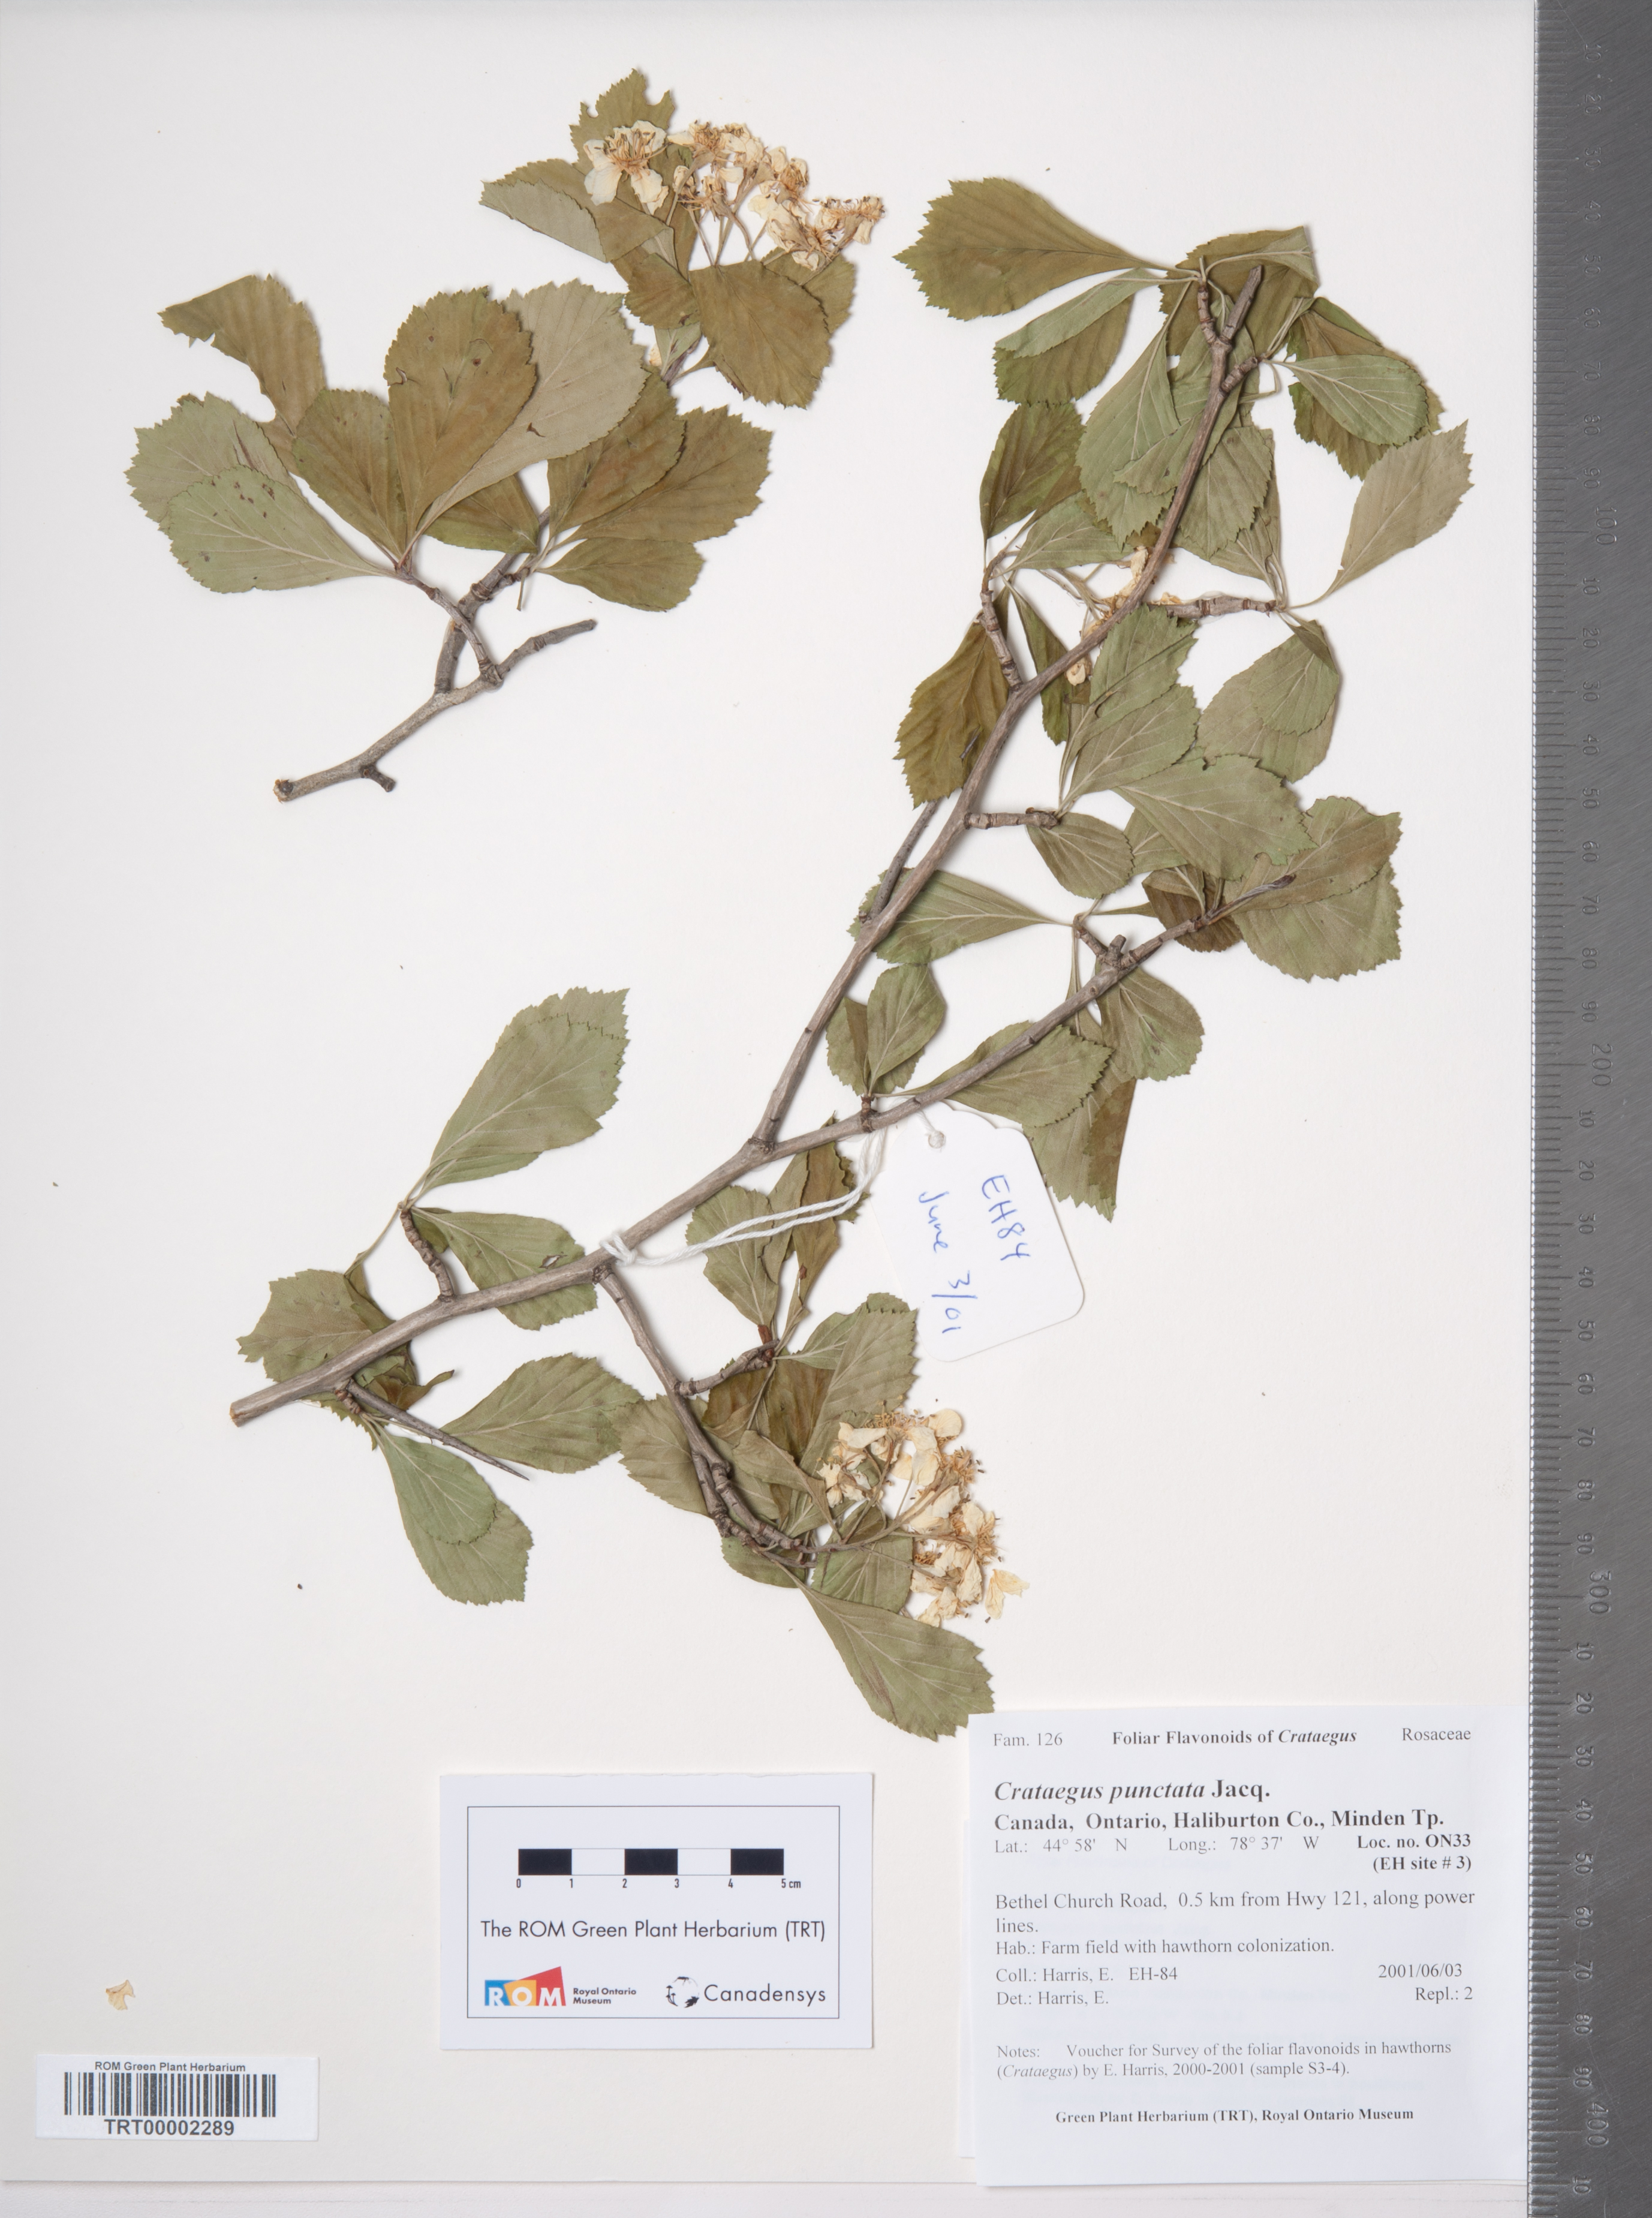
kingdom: Plantae
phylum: Tracheophyta
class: Magnoliopsida
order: Rosales
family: Rosaceae
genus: Crataegus
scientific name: Crataegus punctata
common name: Dotted hawthorn
